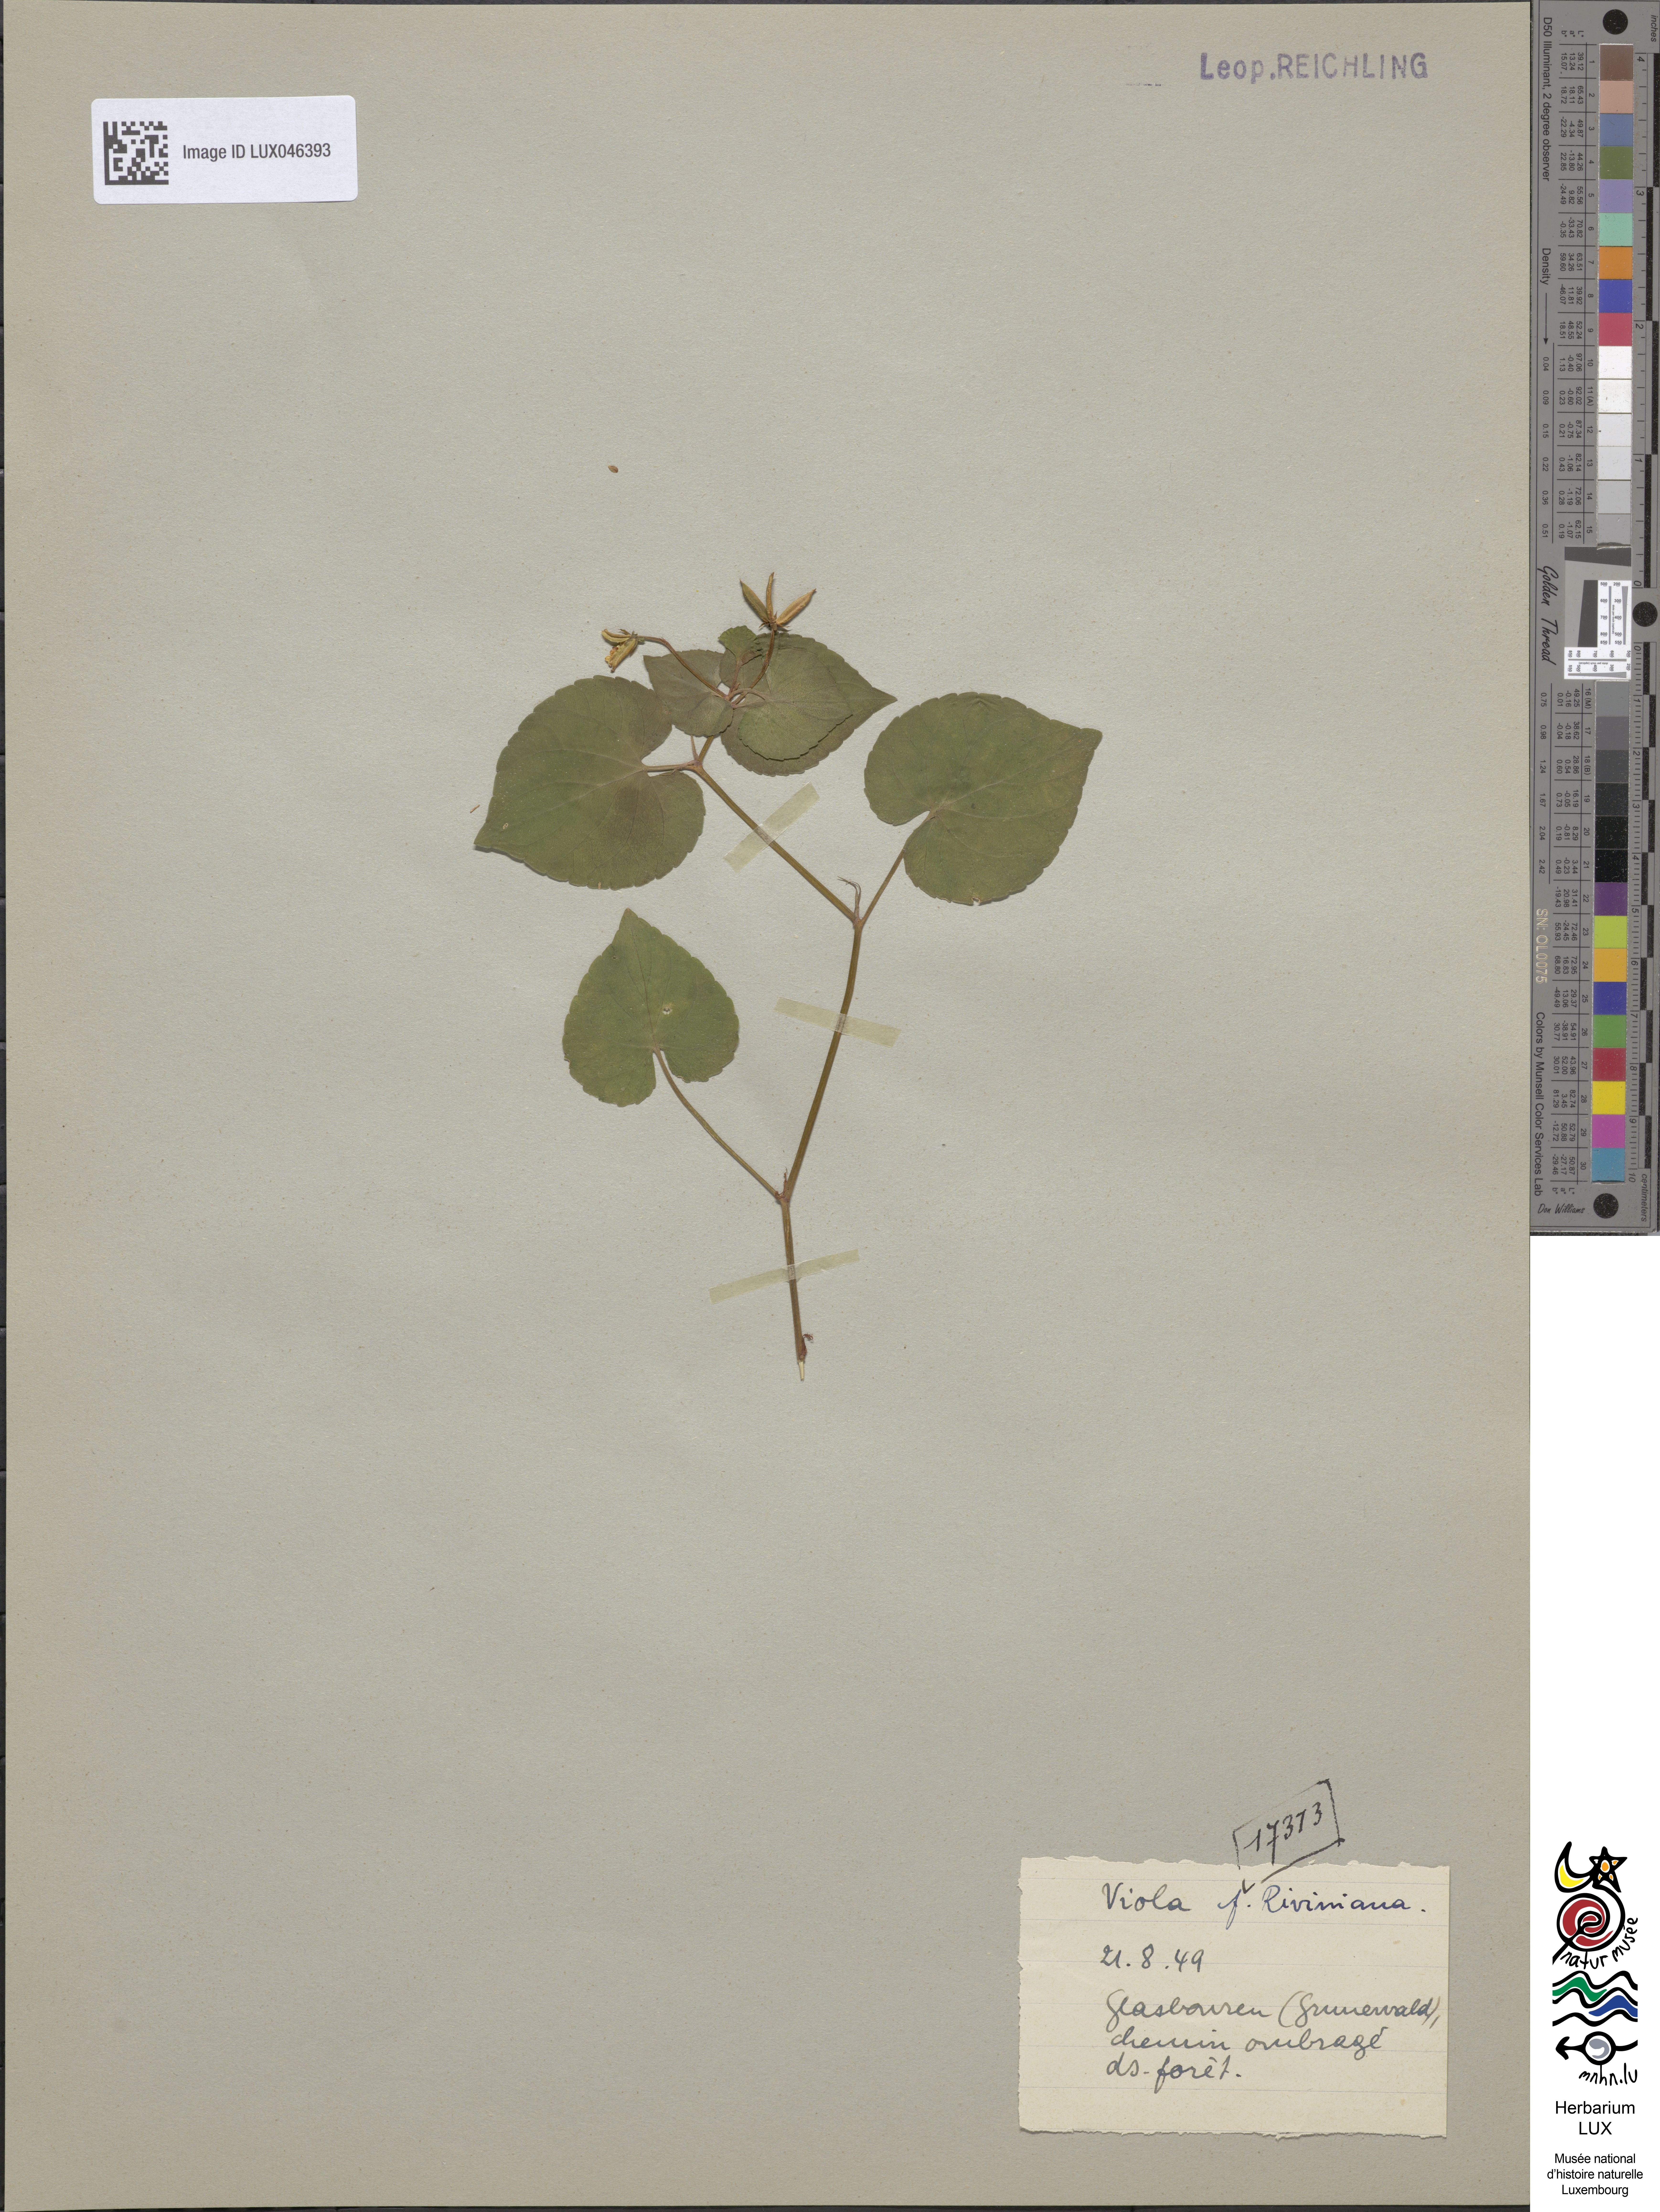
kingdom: Plantae
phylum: Tracheophyta
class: Magnoliopsida
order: Malpighiales
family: Violaceae
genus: Viola
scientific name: Viola riviniana
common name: Common dog-violet
